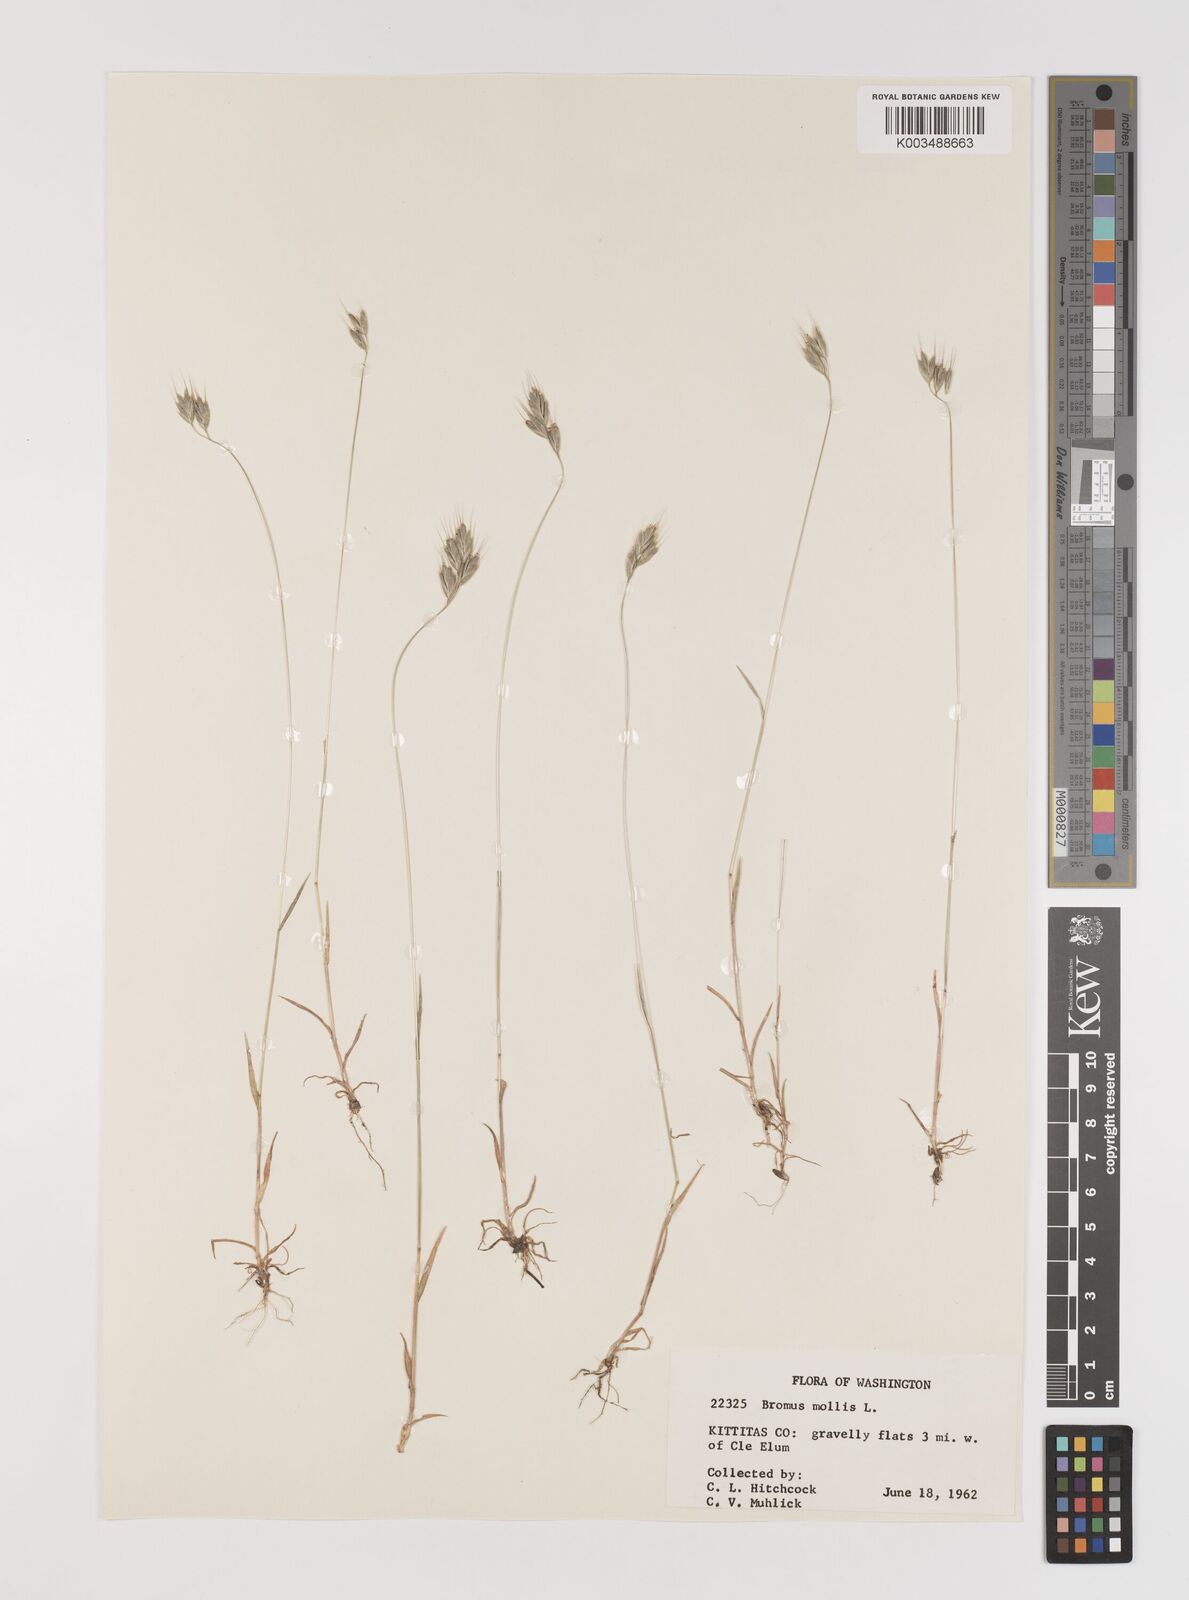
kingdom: Plantae
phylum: Tracheophyta
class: Liliopsida
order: Poales
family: Poaceae
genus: Bromus
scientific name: Bromus hordeaceus
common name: Soft brome
